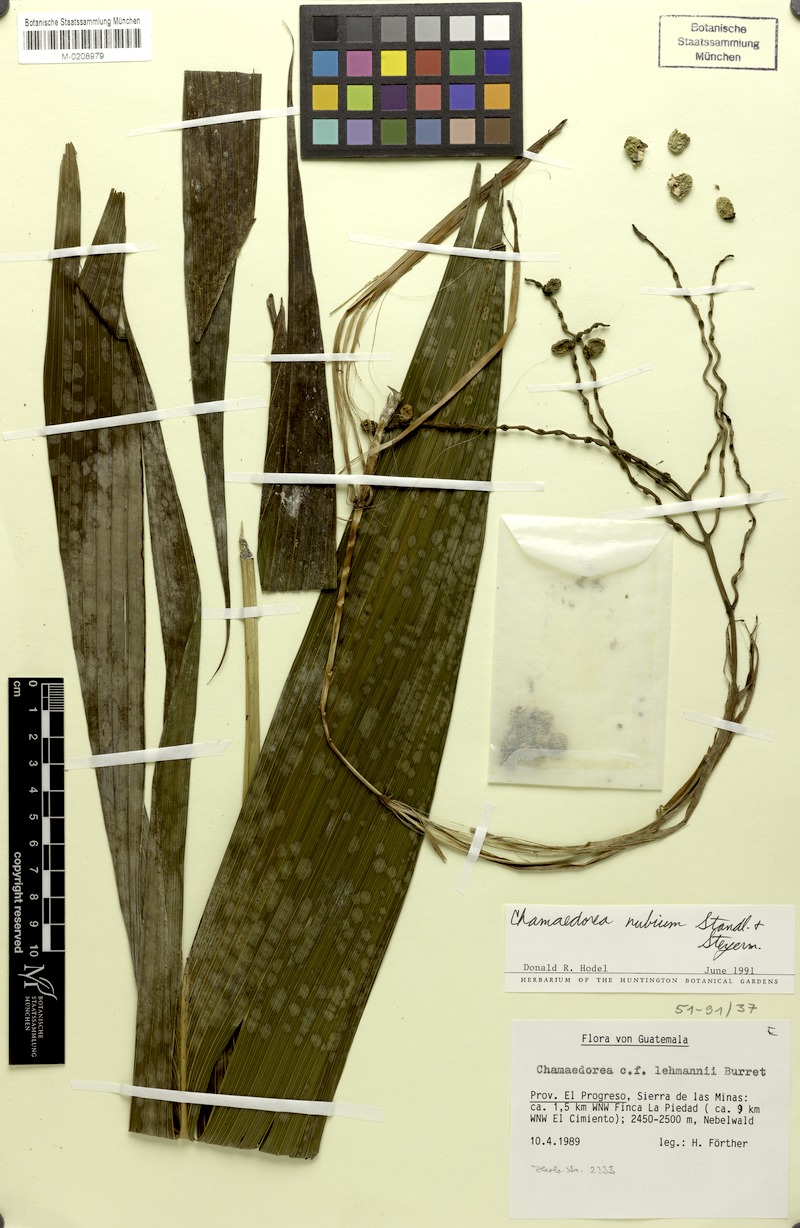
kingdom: Plantae
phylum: Tracheophyta
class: Liliopsida
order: Arecales
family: Arecaceae
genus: Chamaedorea
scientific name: Chamaedorea nubium
